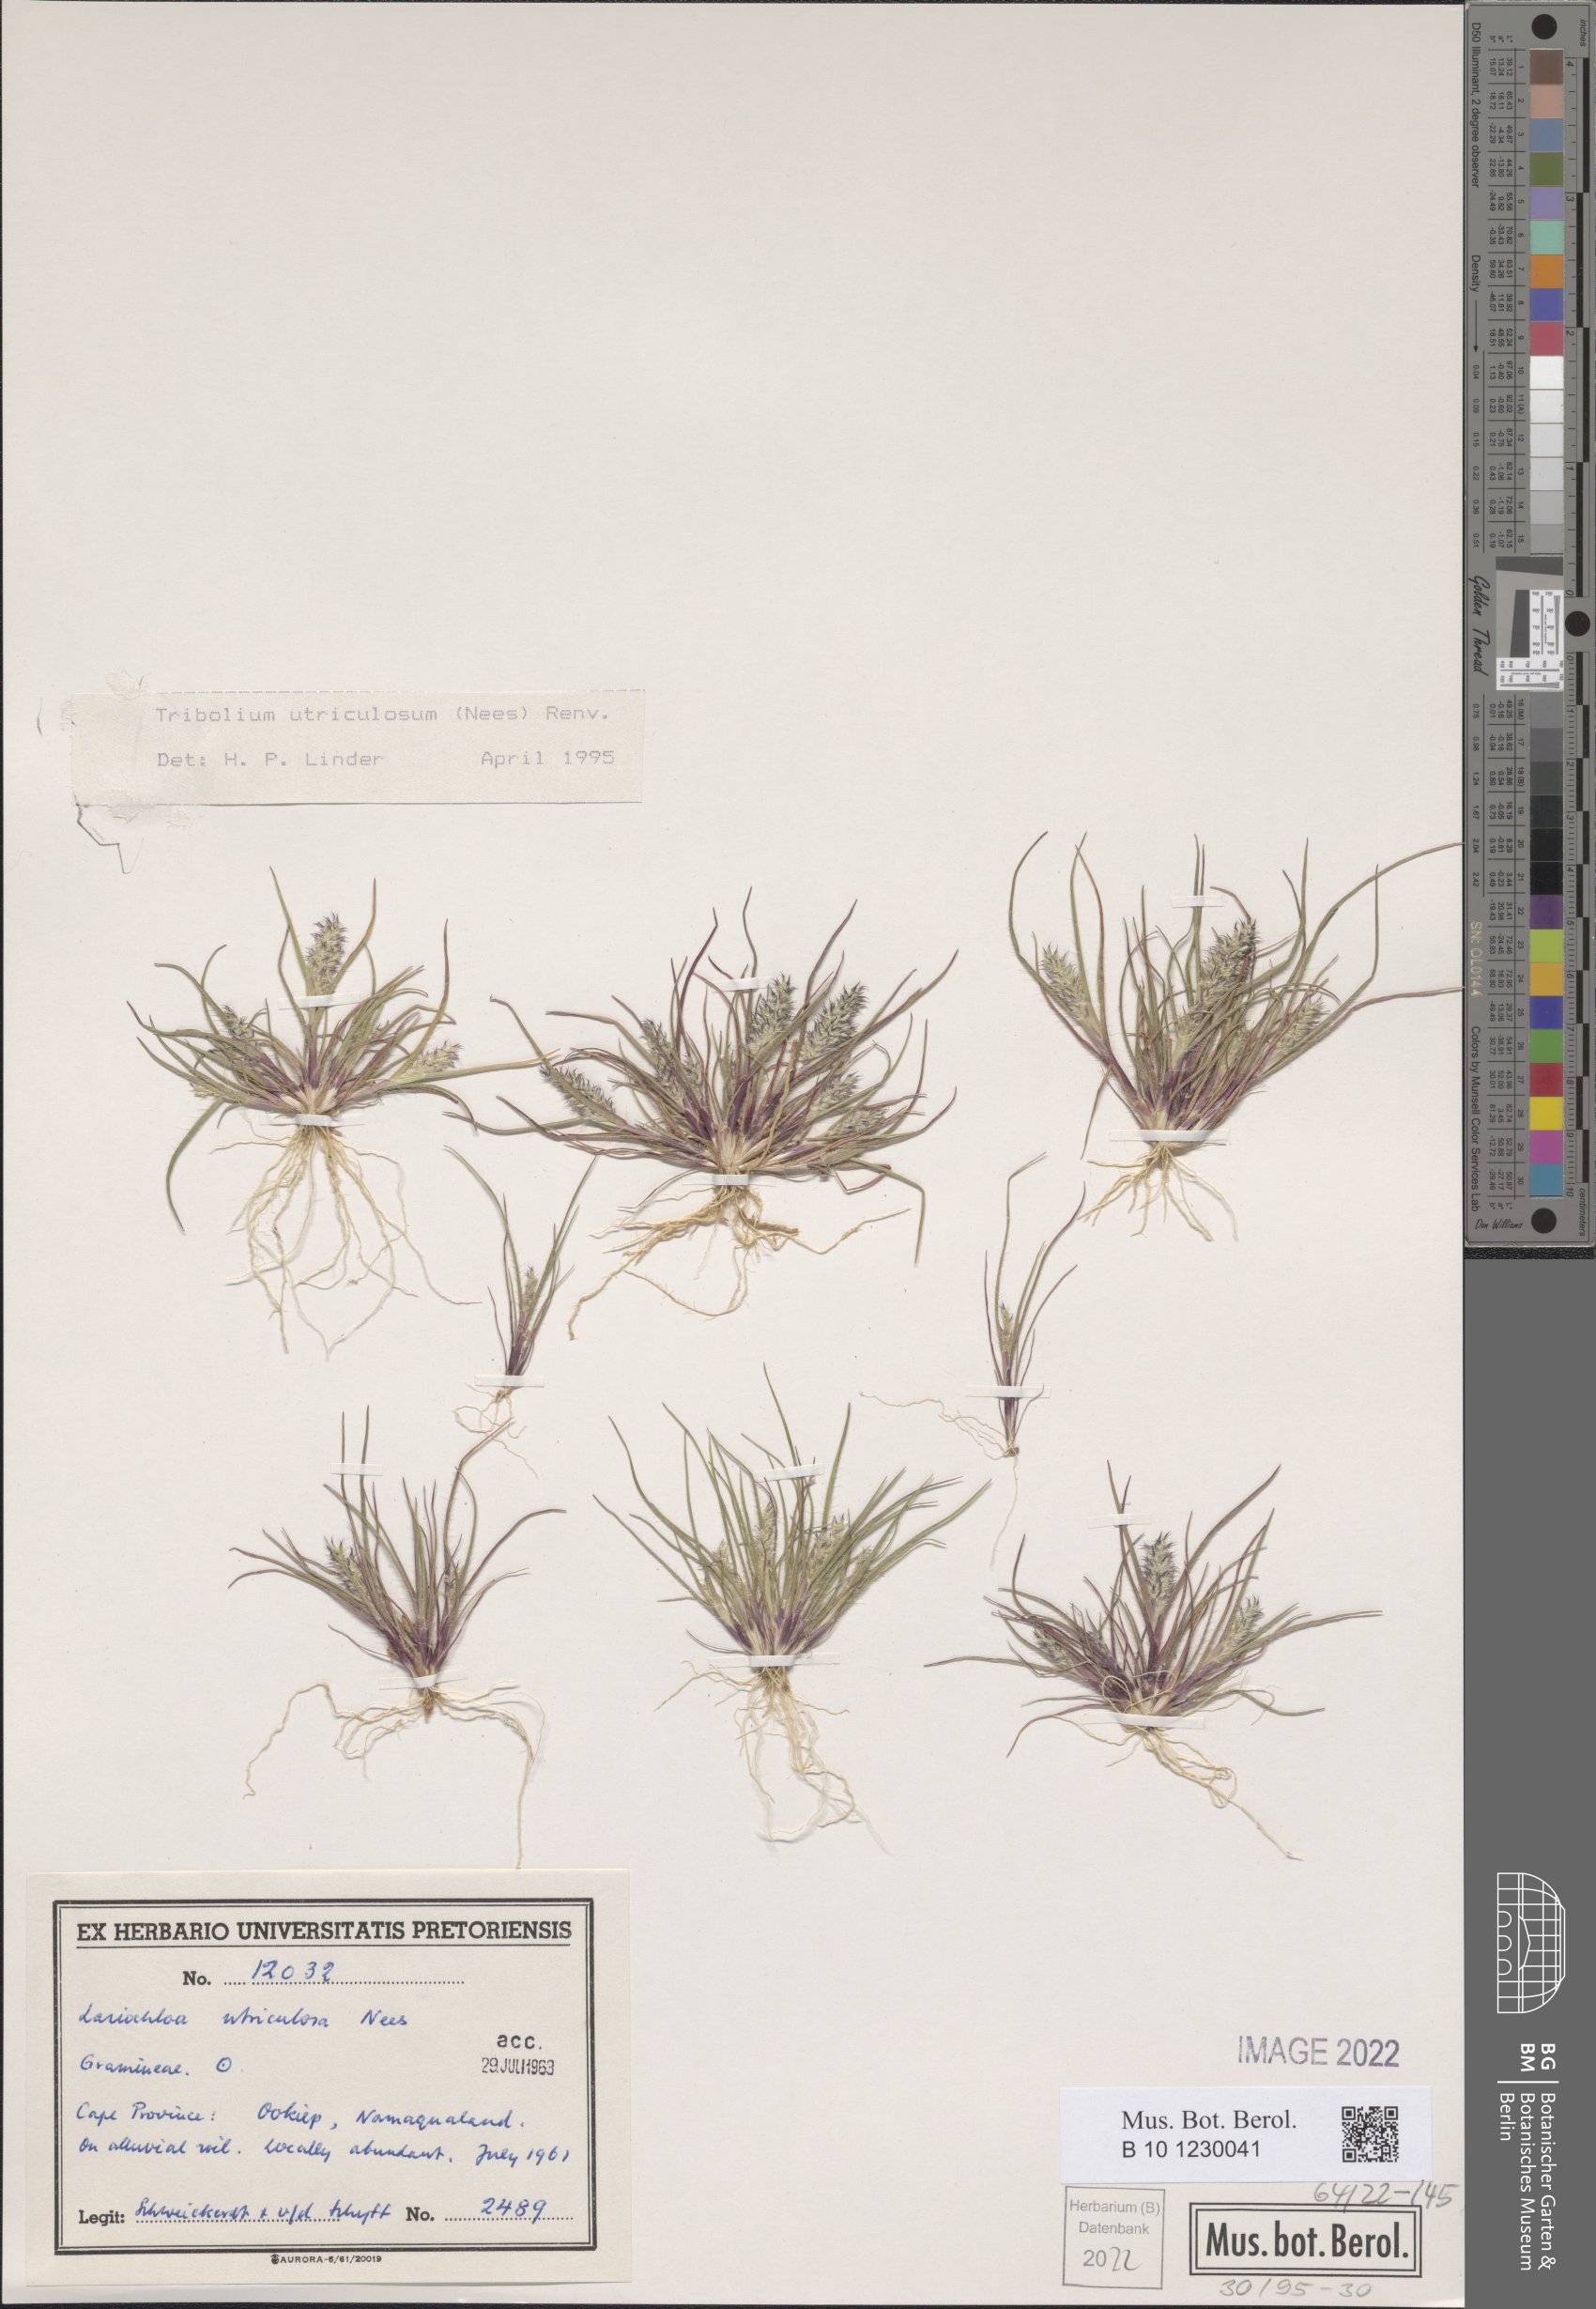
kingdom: Plantae
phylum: Tracheophyta
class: Liliopsida
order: Poales
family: Poaceae
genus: Tribolium
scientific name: Tribolium utriculosum
